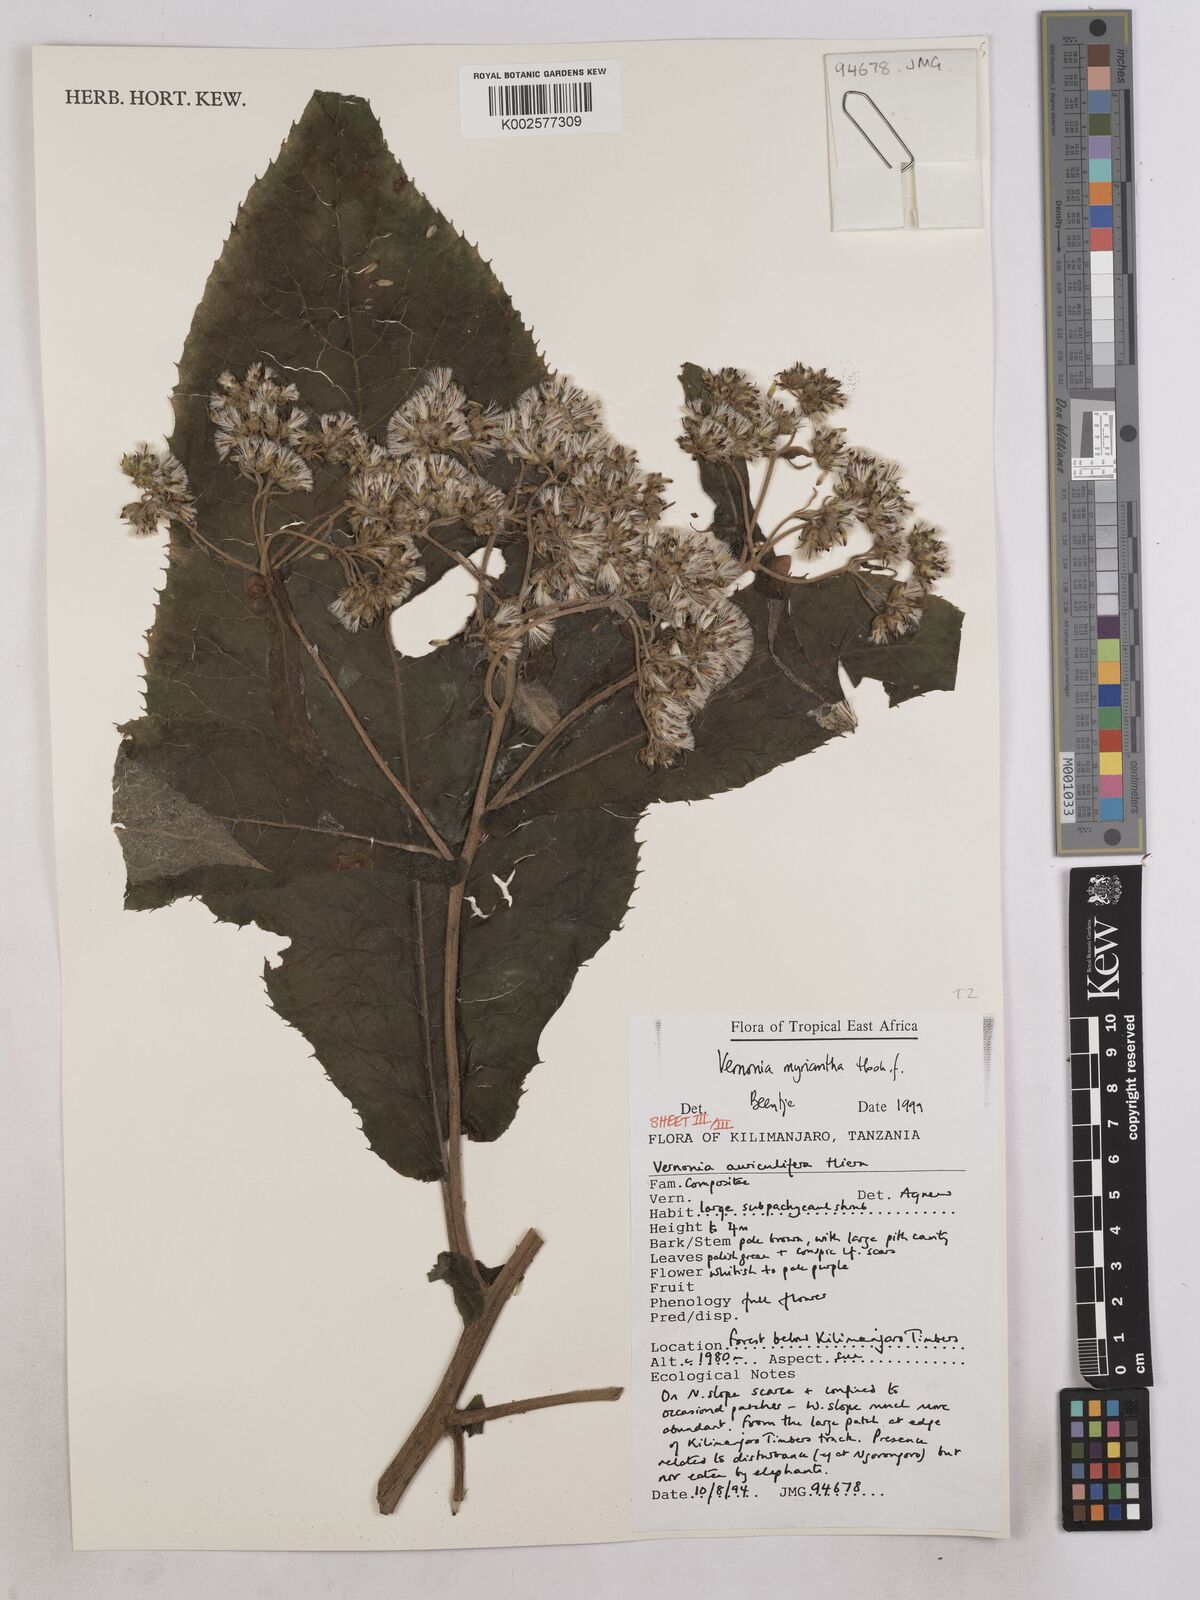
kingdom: Plantae
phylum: Tracheophyta
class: Magnoliopsida
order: Asterales
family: Asteraceae
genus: Gymnanthemum
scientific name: Gymnanthemum myrianthum
